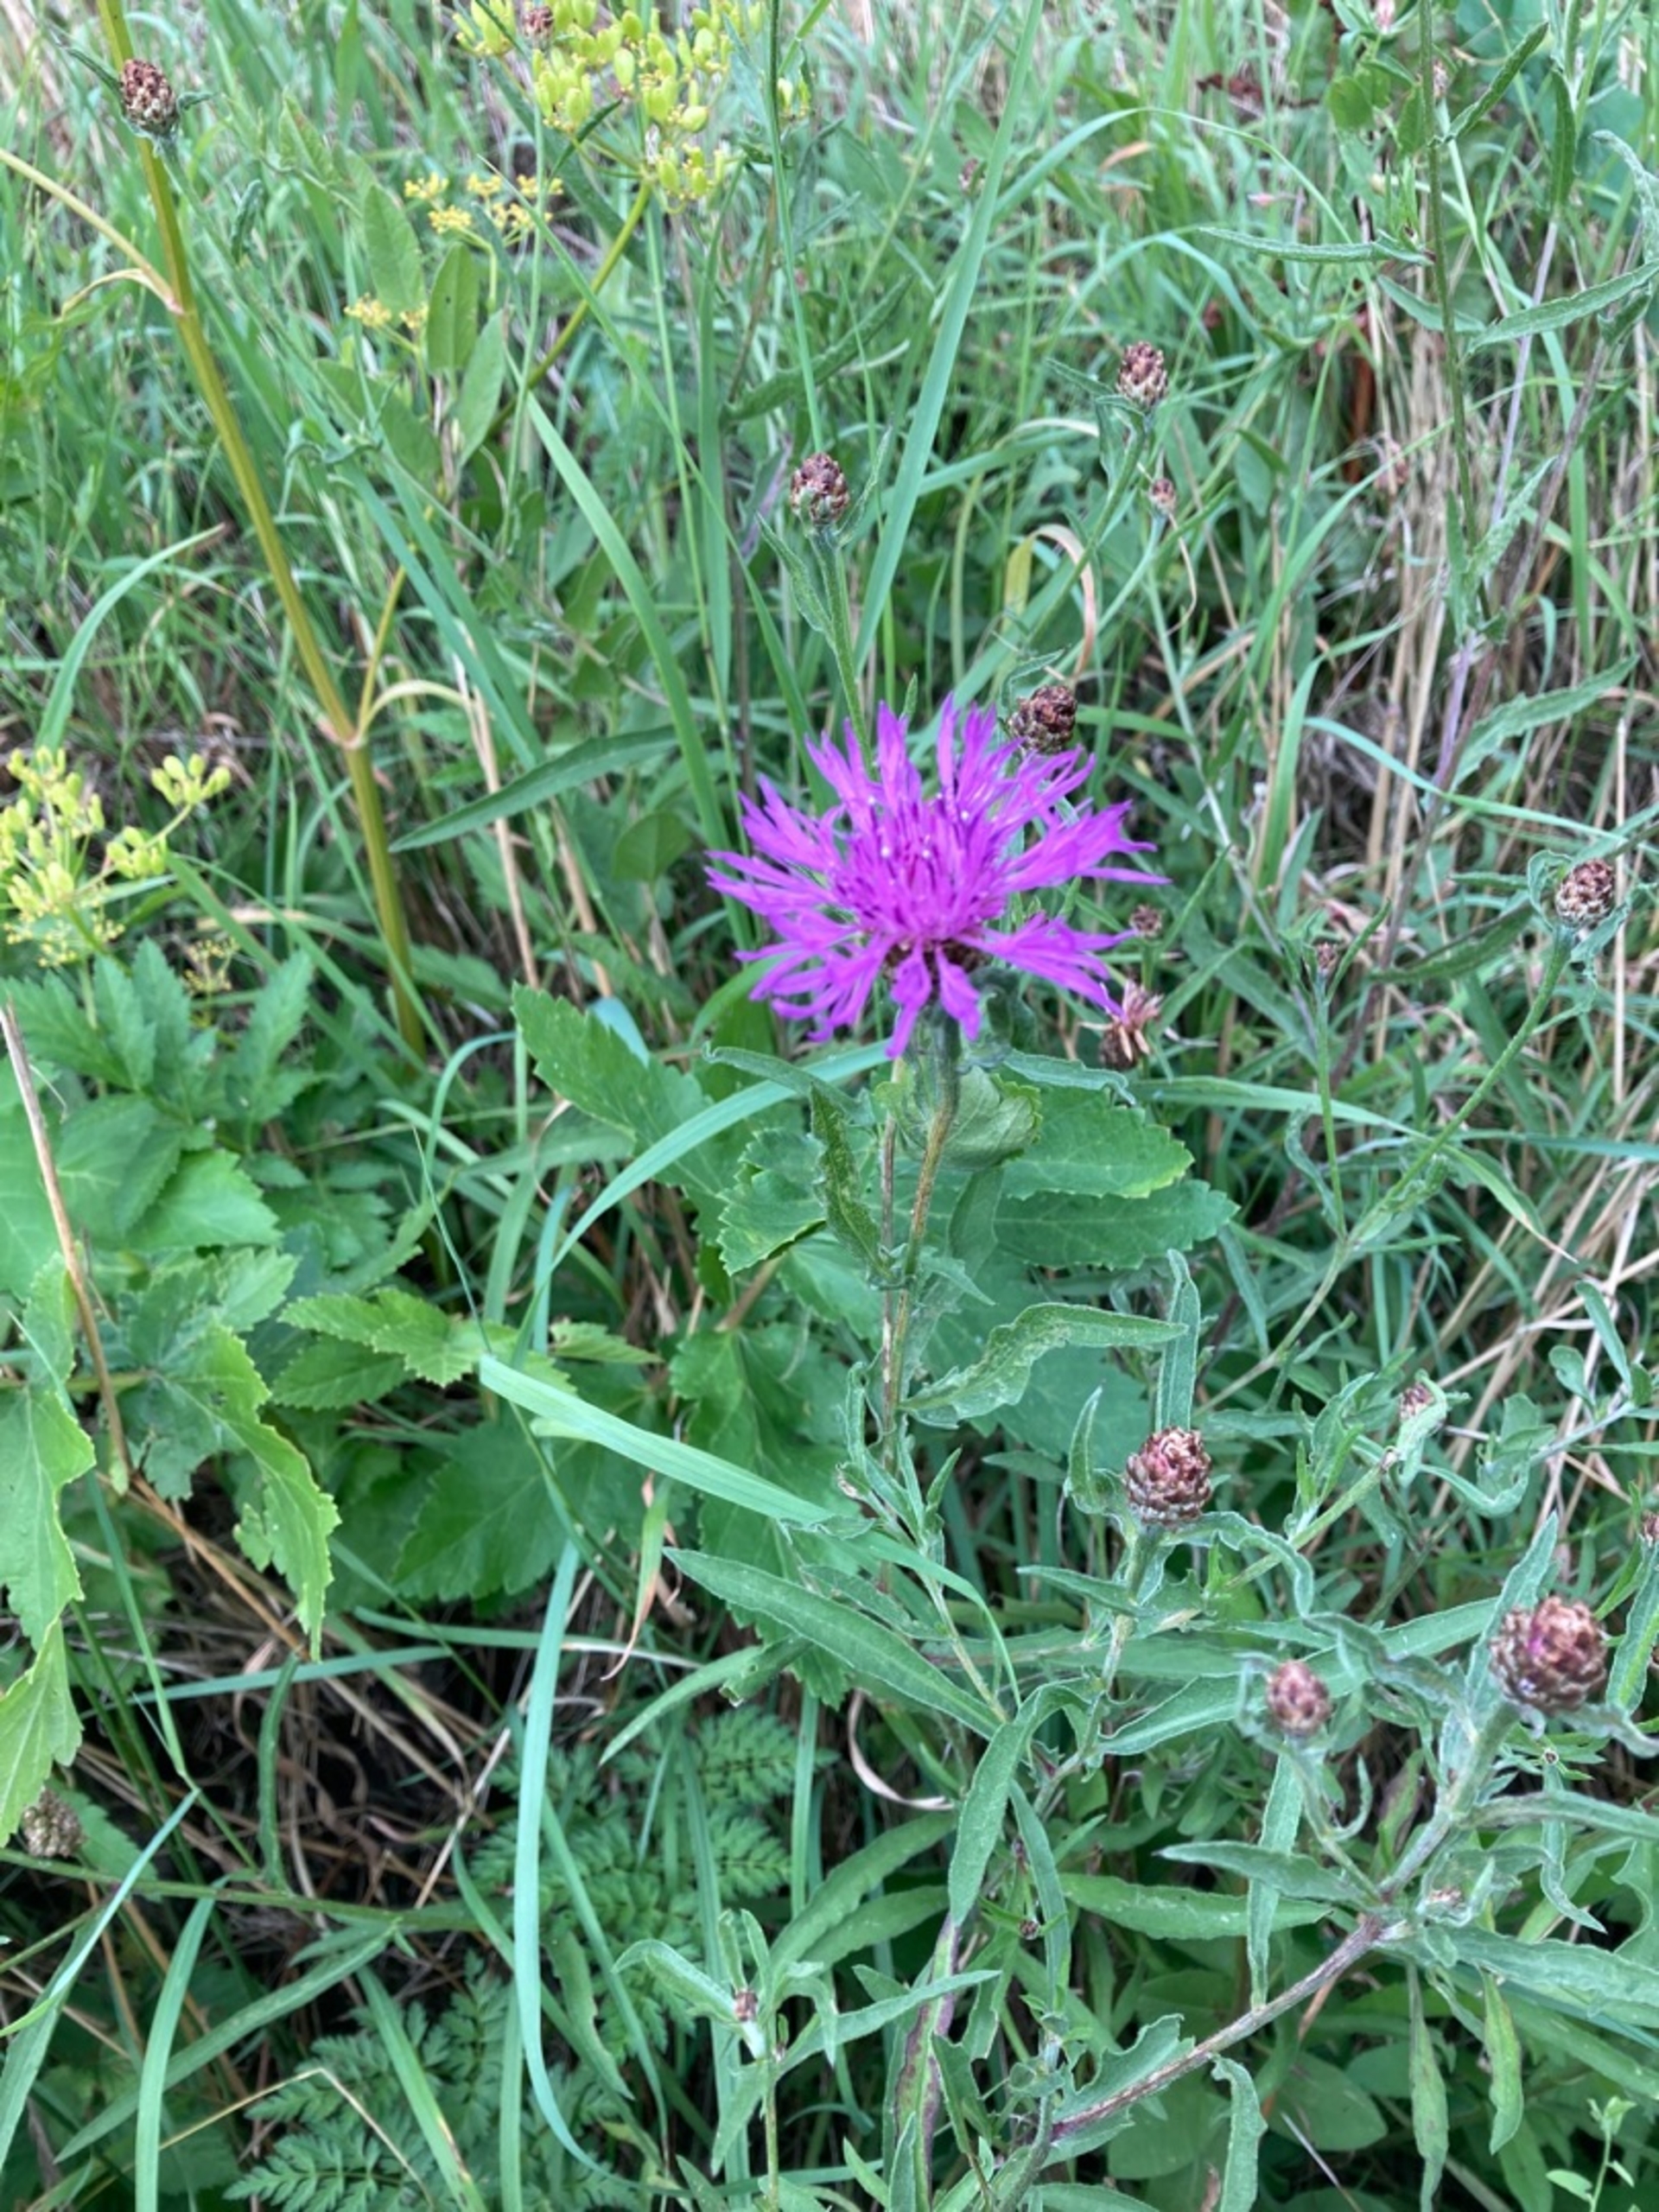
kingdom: Plantae
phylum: Tracheophyta
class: Magnoliopsida
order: Asterales
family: Asteraceae
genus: Centaurea
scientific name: Centaurea jacea
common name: Almindelig knopurt
